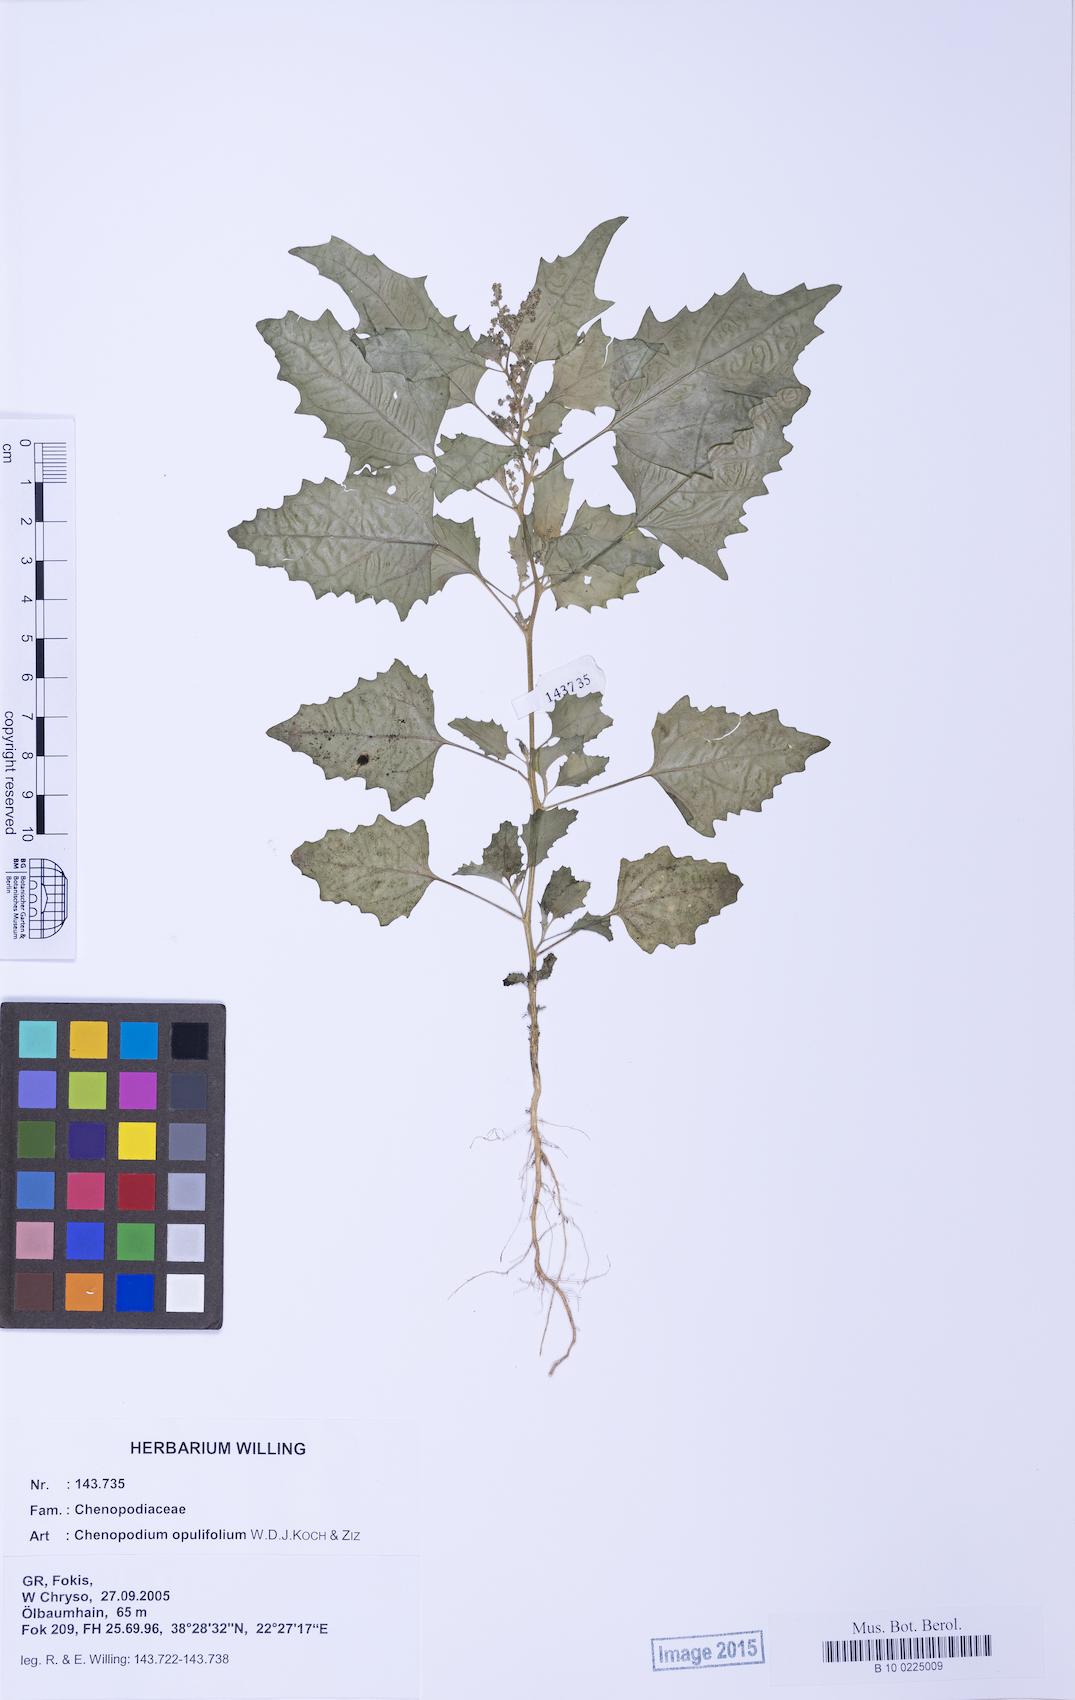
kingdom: Plantae
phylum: Tracheophyta
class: Magnoliopsida
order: Caryophyllales
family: Amaranthaceae
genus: Chenopodiastrum
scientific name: Chenopodiastrum murale
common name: Sowbane
